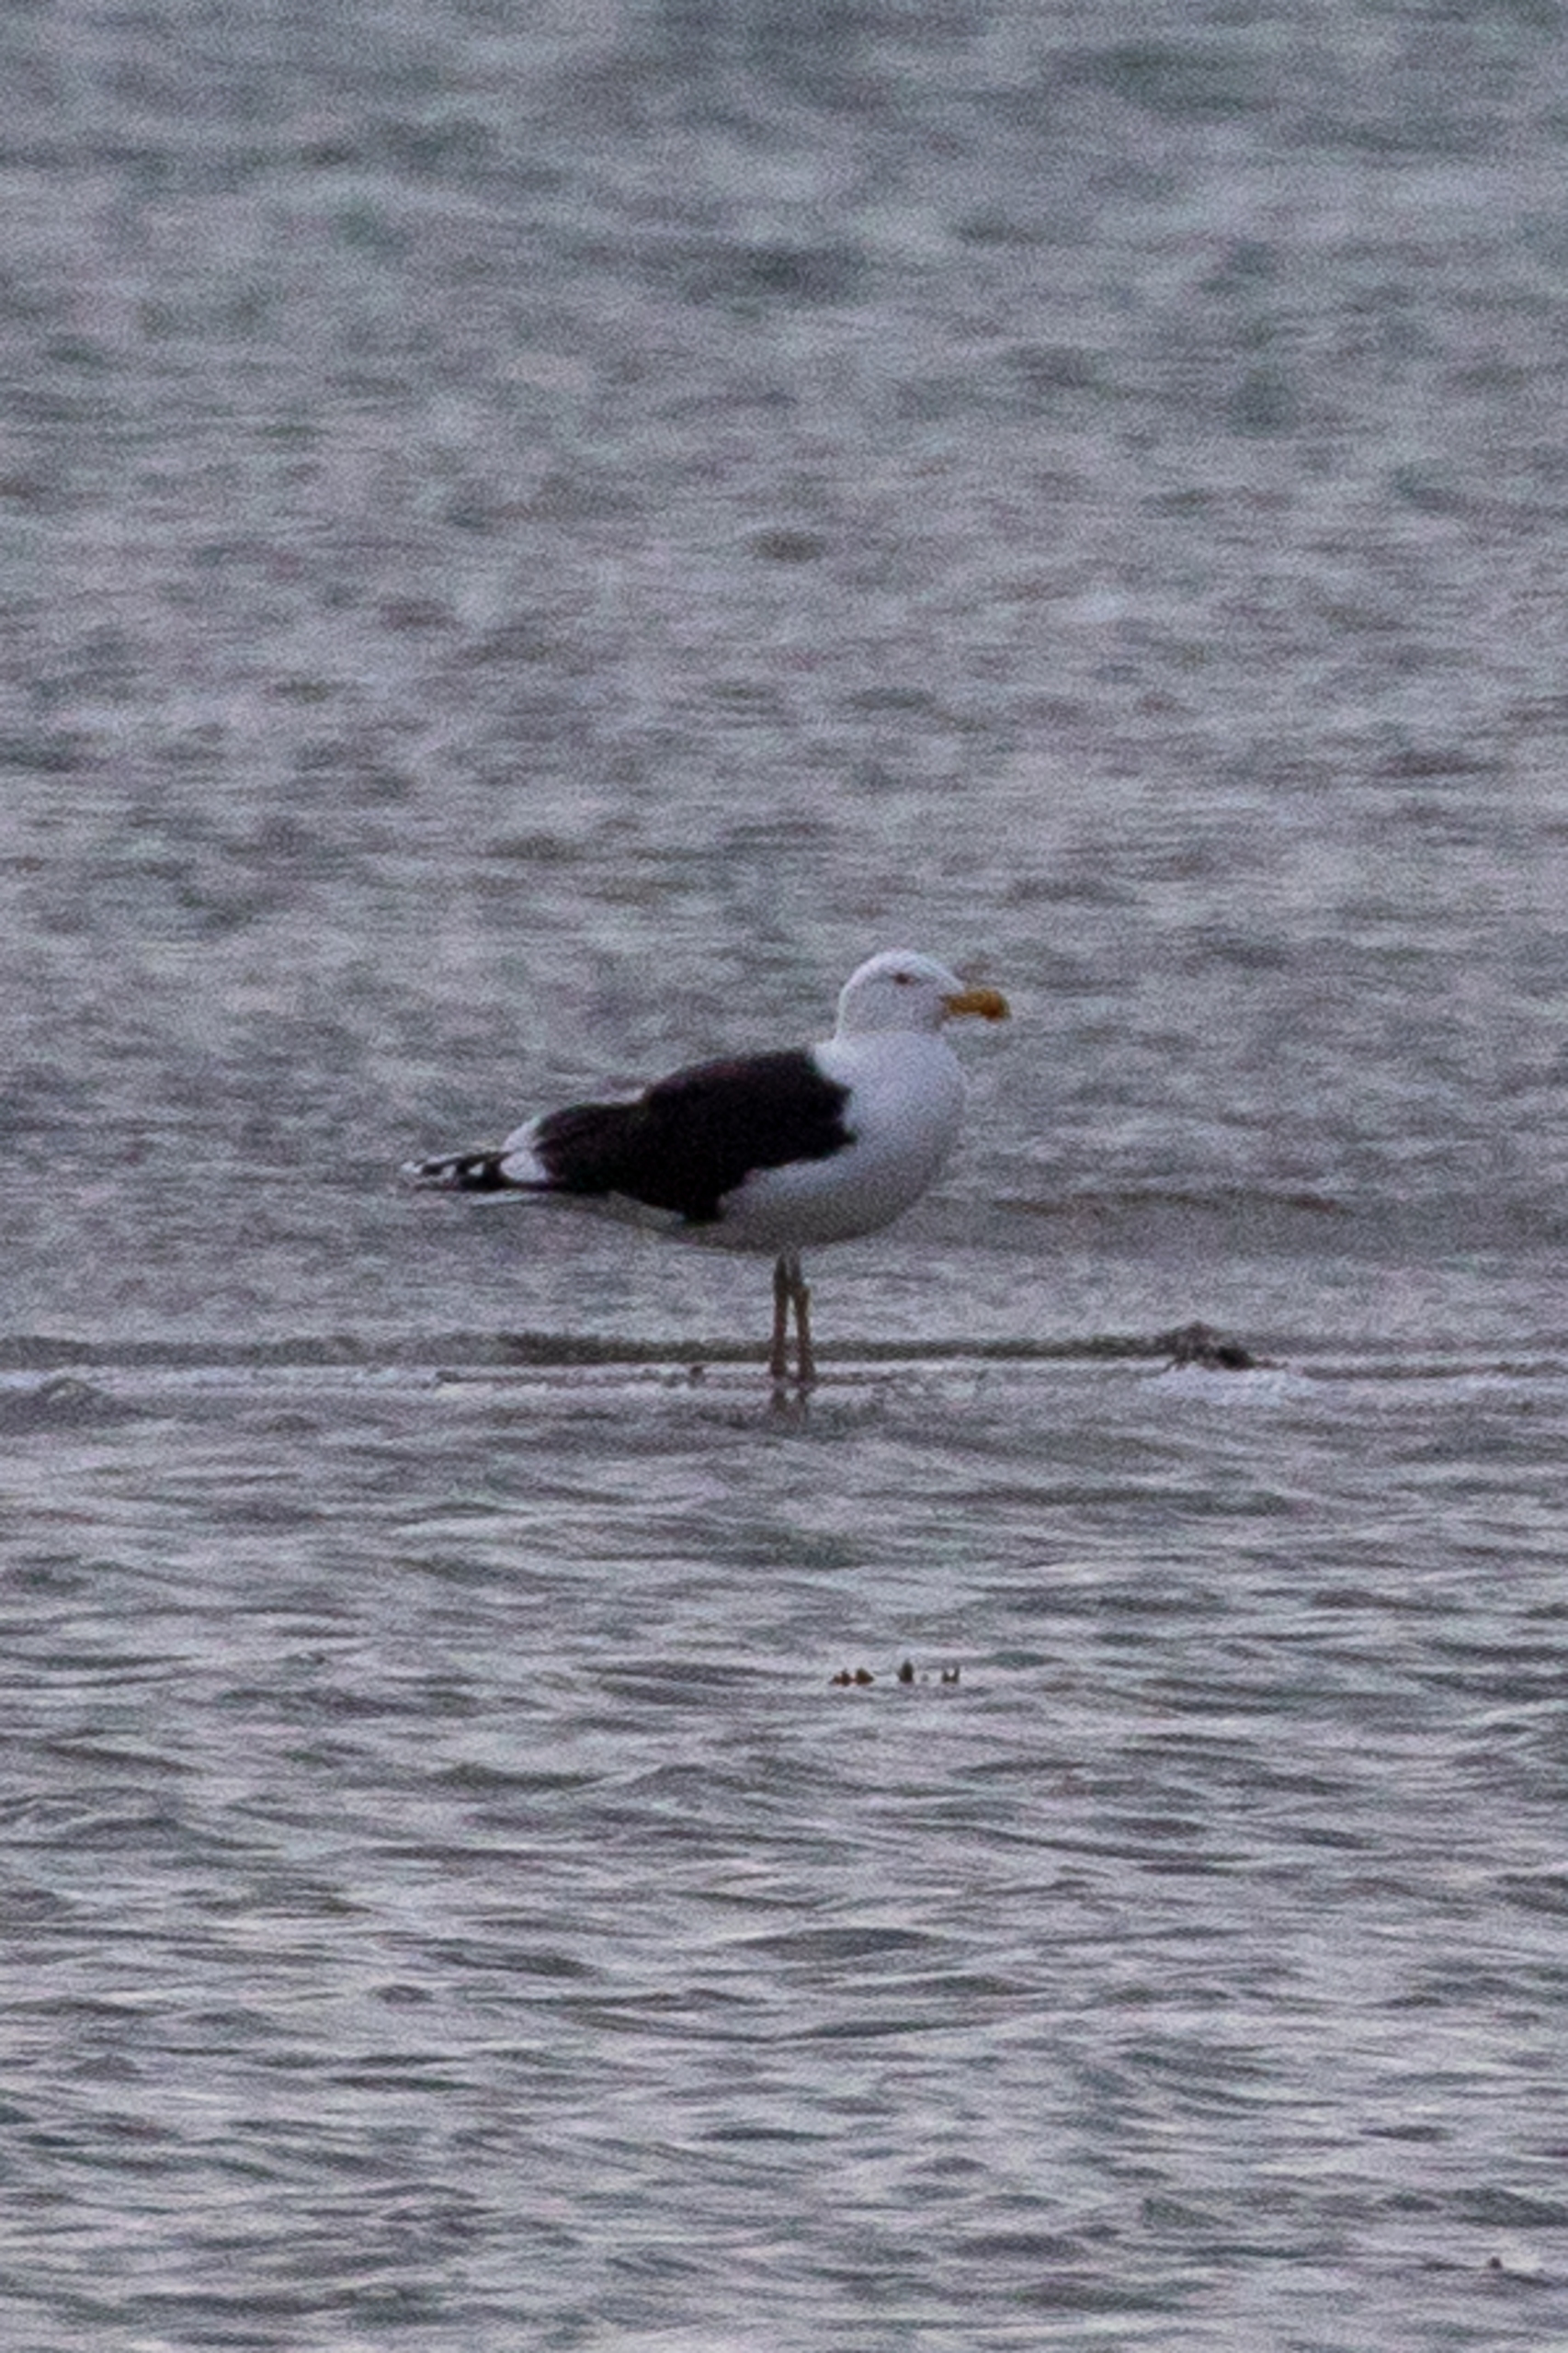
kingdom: Animalia
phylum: Chordata
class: Aves
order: Charadriiformes
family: Laridae
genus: Larus
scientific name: Larus marinus
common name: Svartbag
